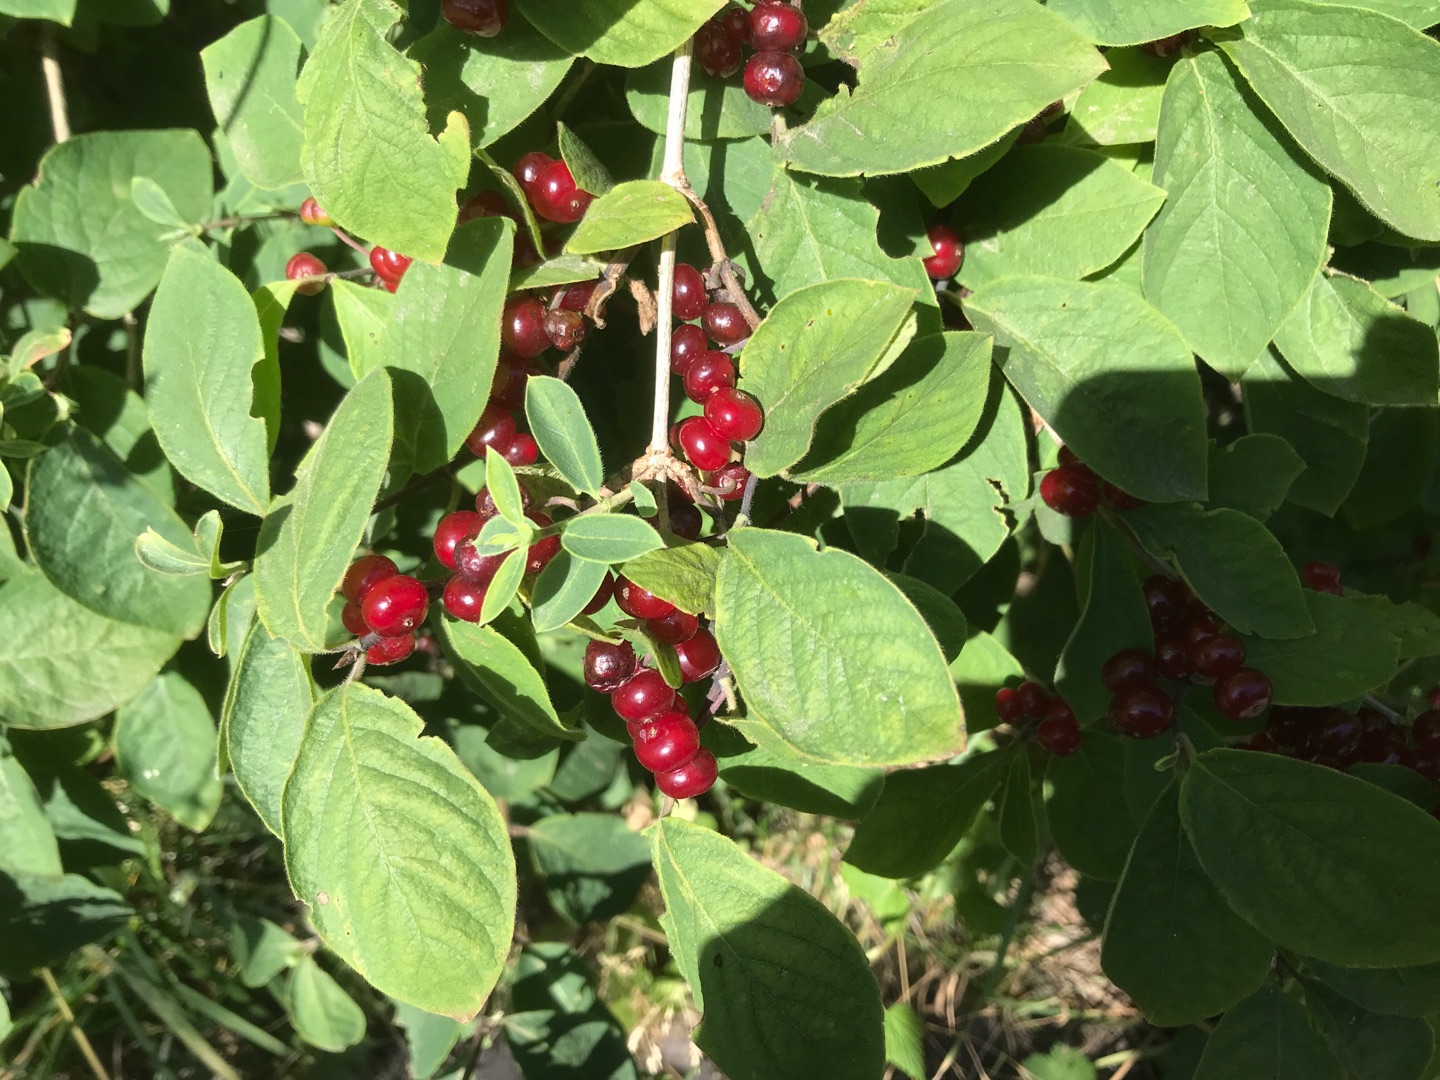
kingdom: Plantae
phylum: Tracheophyta
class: Magnoliopsida
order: Dipsacales
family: Caprifoliaceae
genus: Lonicera
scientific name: Lonicera xylosteum
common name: Dunet gedeblad
